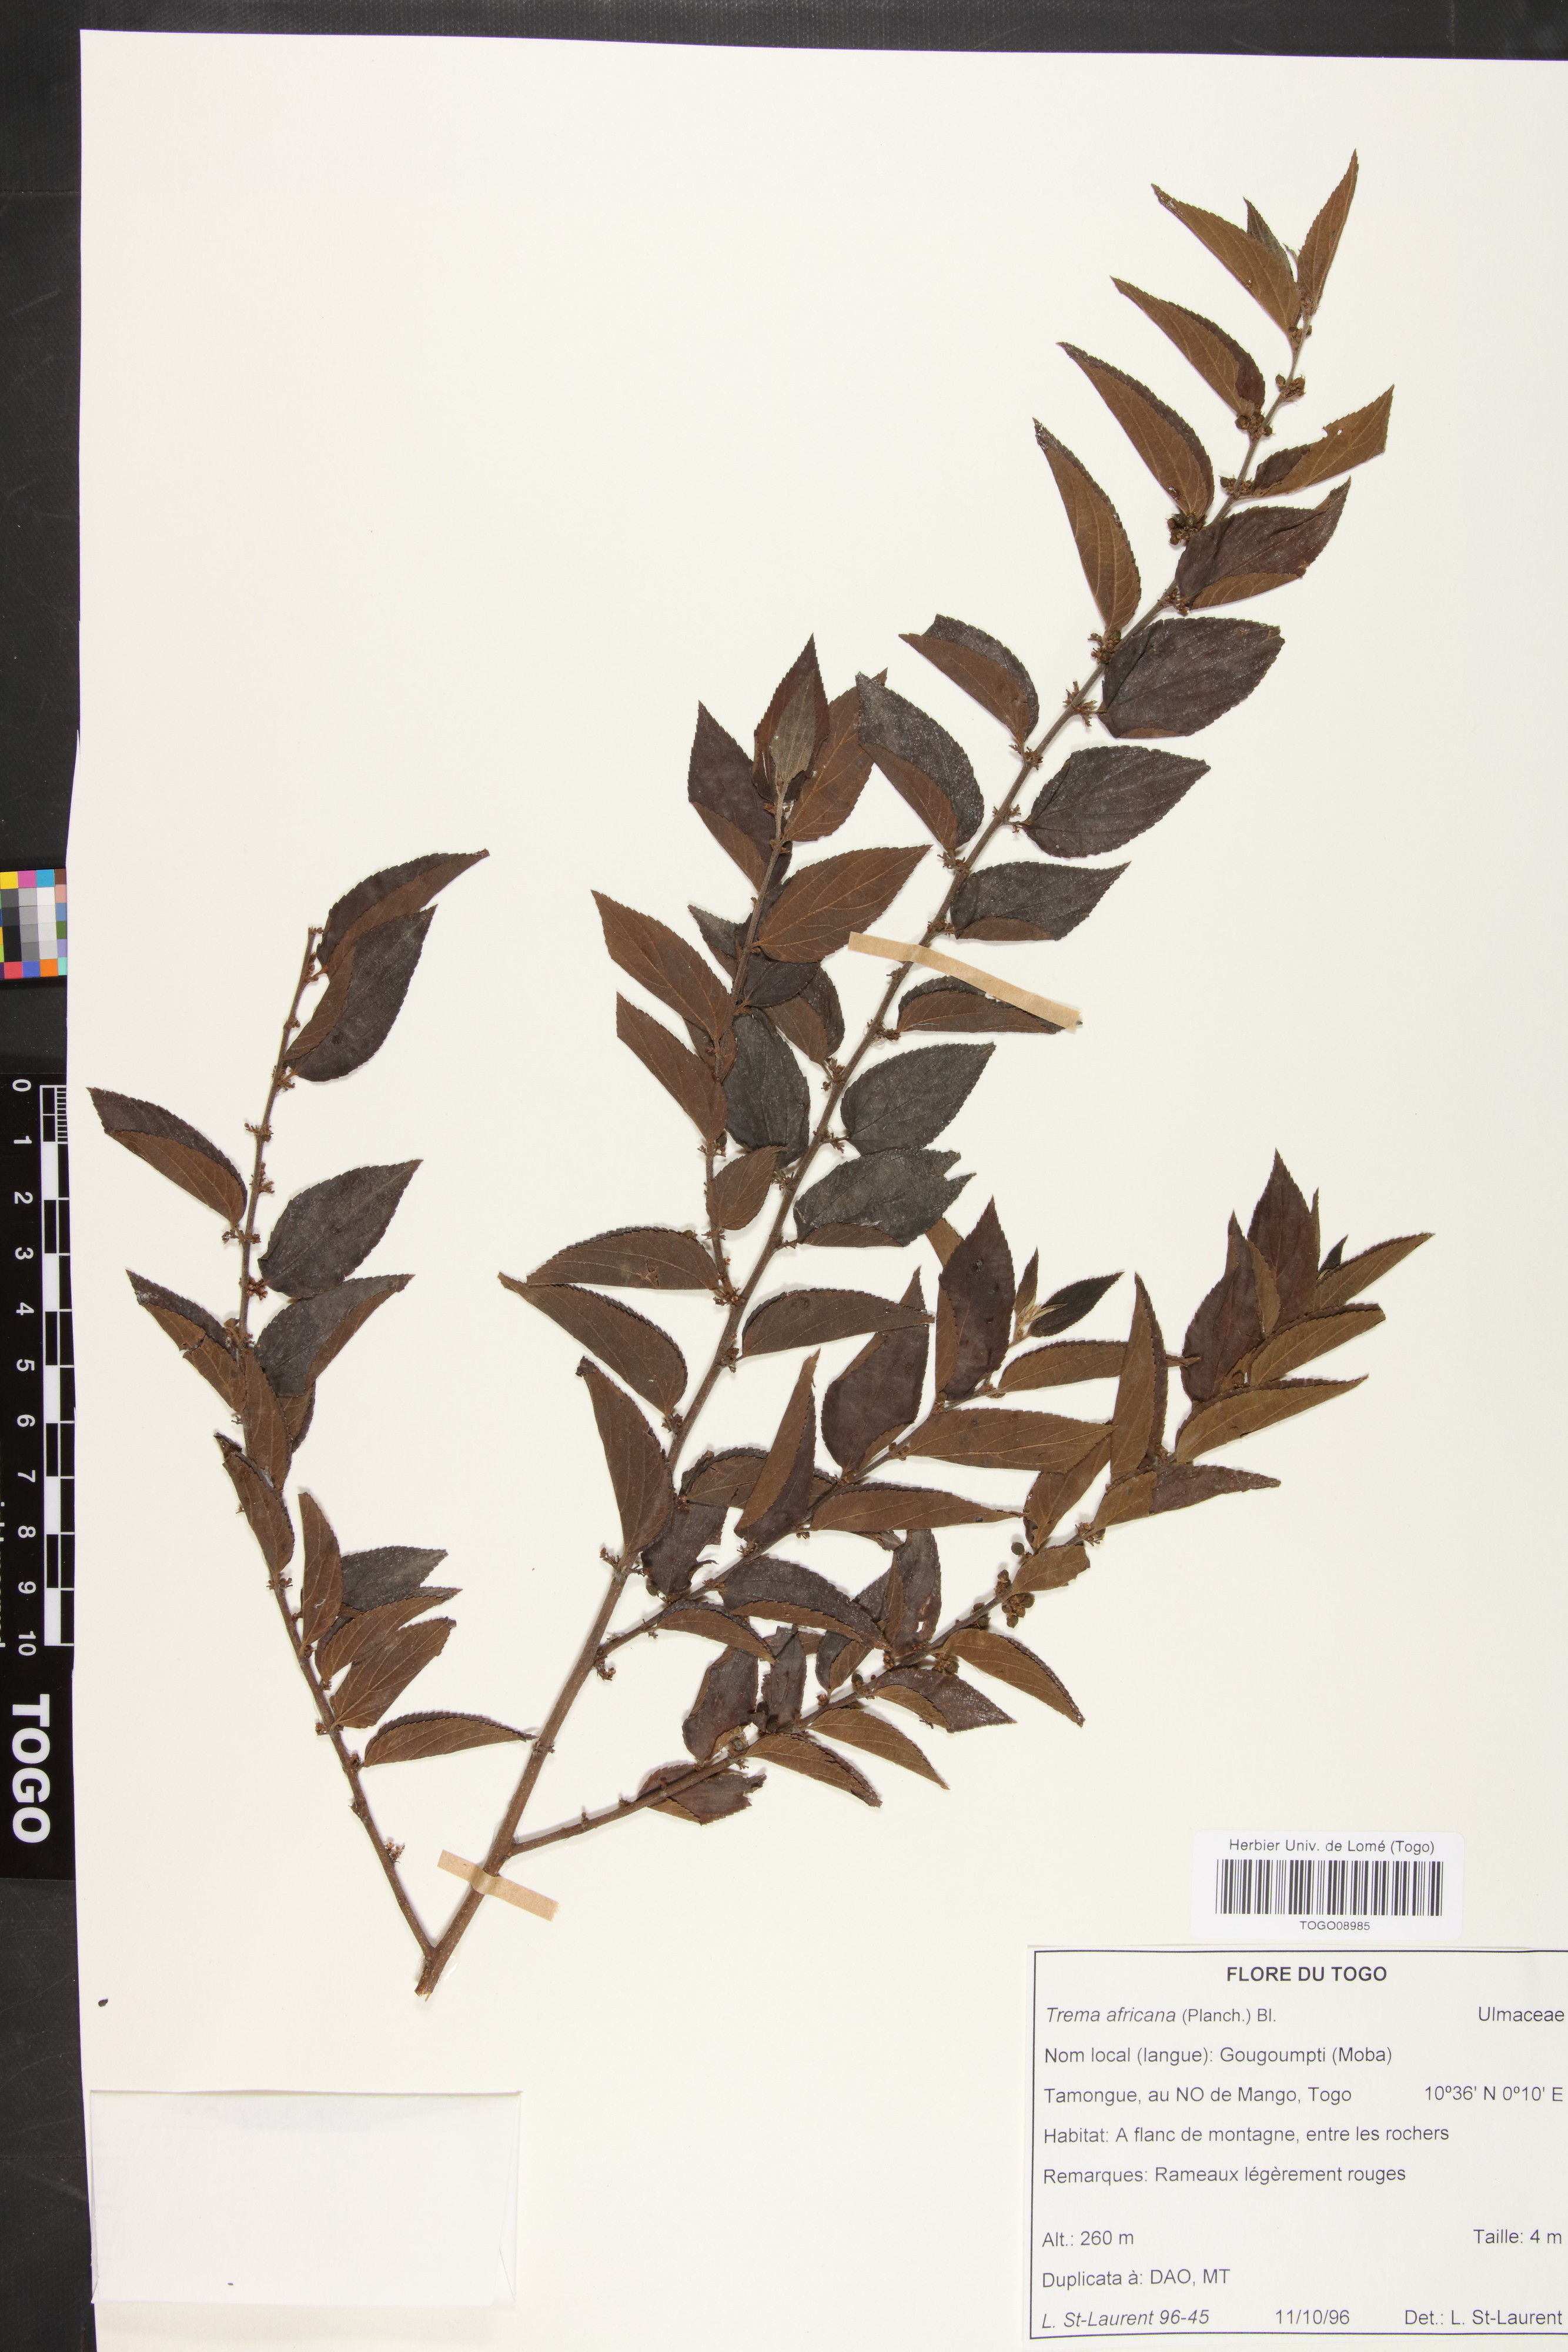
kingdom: Plantae
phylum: Tracheophyta
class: Magnoliopsida
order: Rosales
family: Cannabaceae
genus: Trema
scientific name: Trema orientale
